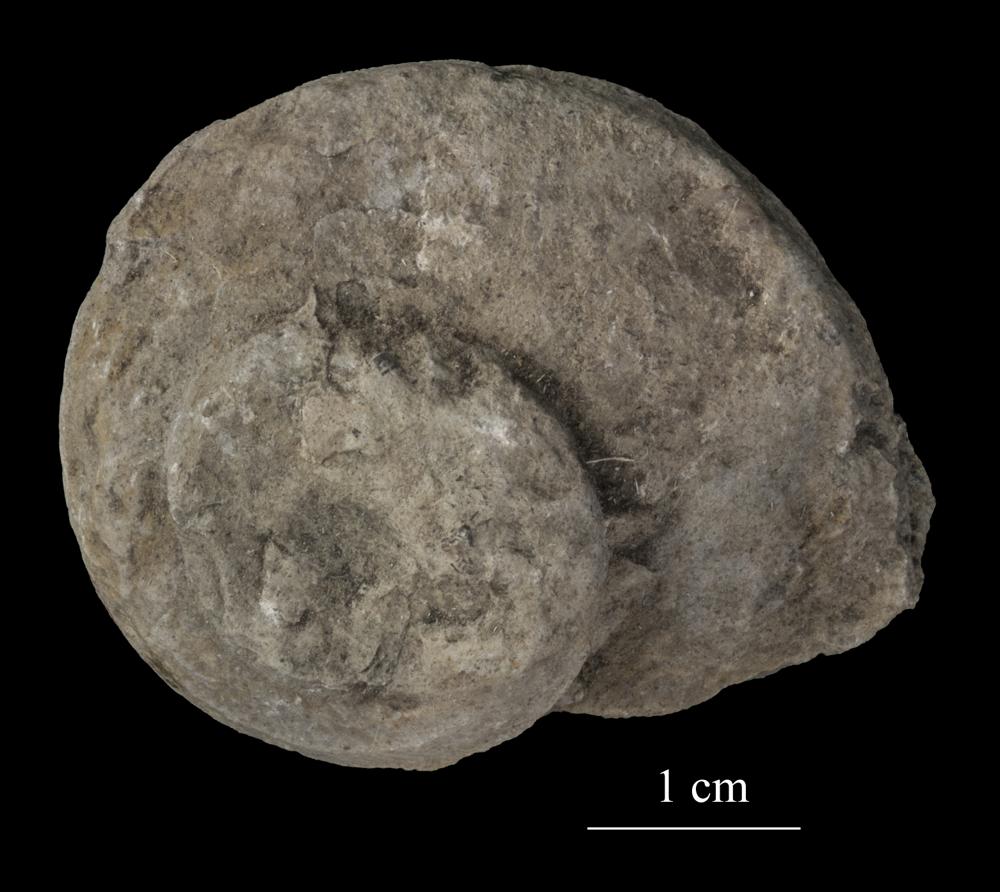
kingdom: Animalia
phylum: Mollusca
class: Gastropoda
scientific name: Gastropoda
